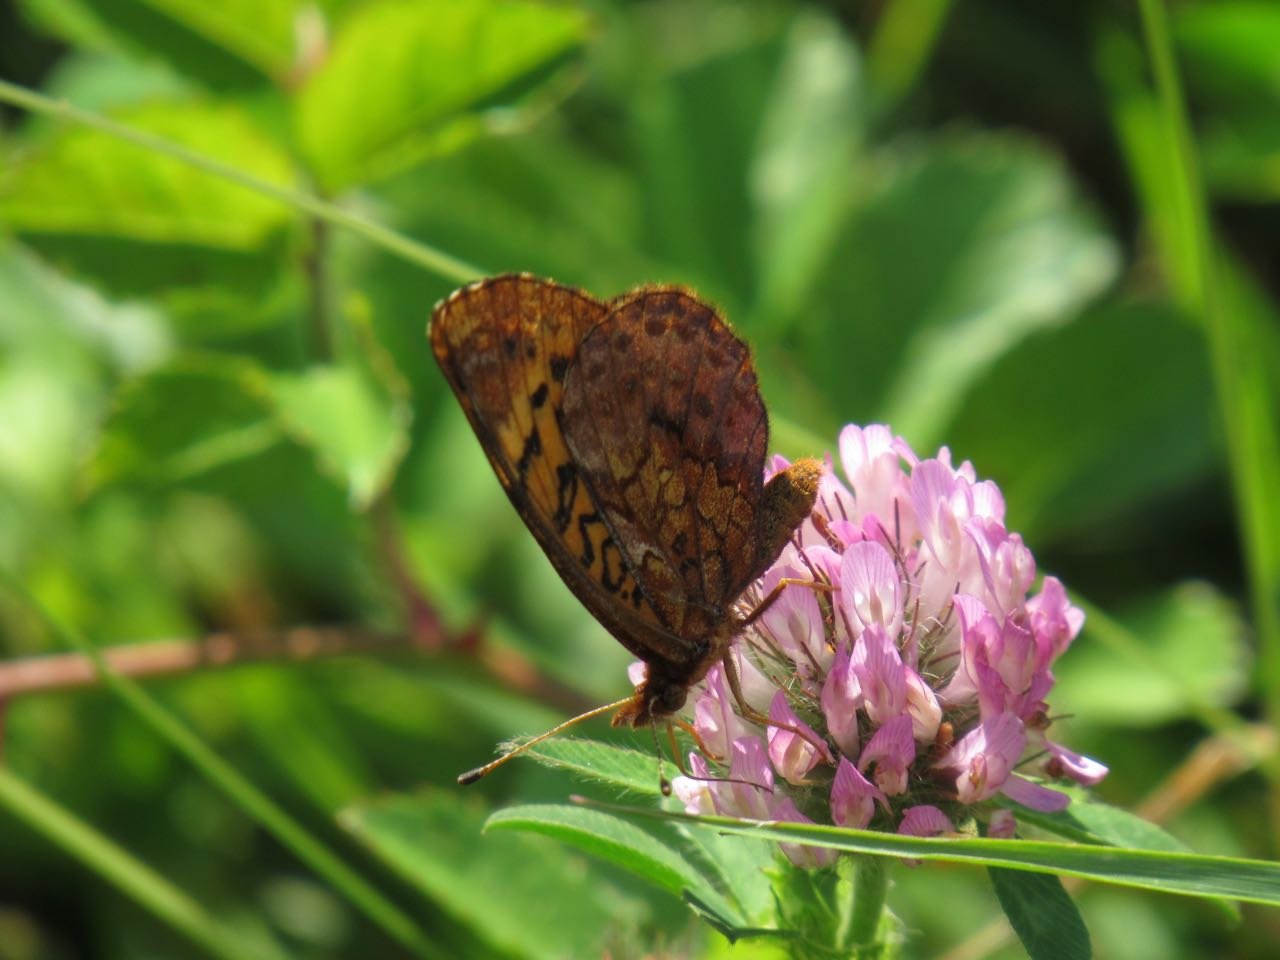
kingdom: Animalia
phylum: Arthropoda
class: Insecta
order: Lepidoptera
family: Nymphalidae
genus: Clossiana
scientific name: Clossiana toddi
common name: Meadow Fritillary
